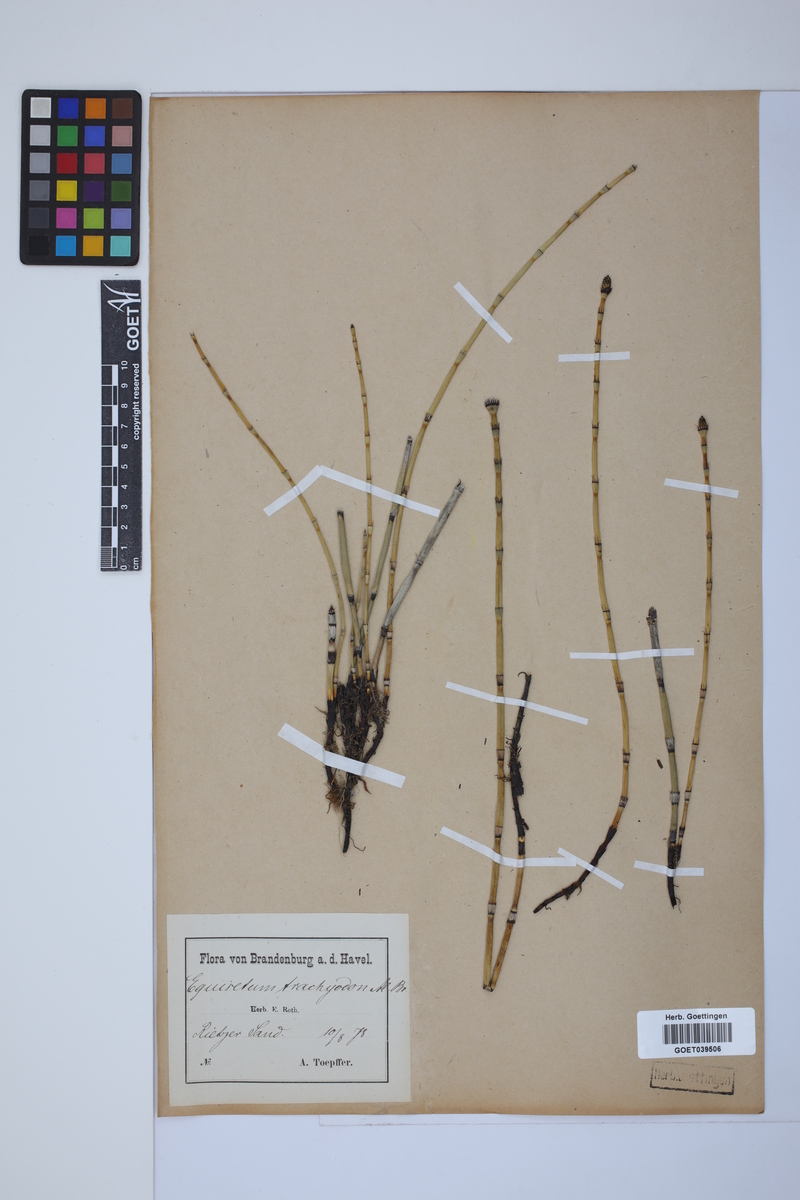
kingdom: Plantae
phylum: Tracheophyta
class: Polypodiopsida
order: Equisetales
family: Equisetaceae
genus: Equisetum
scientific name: Equisetum trachyodon
